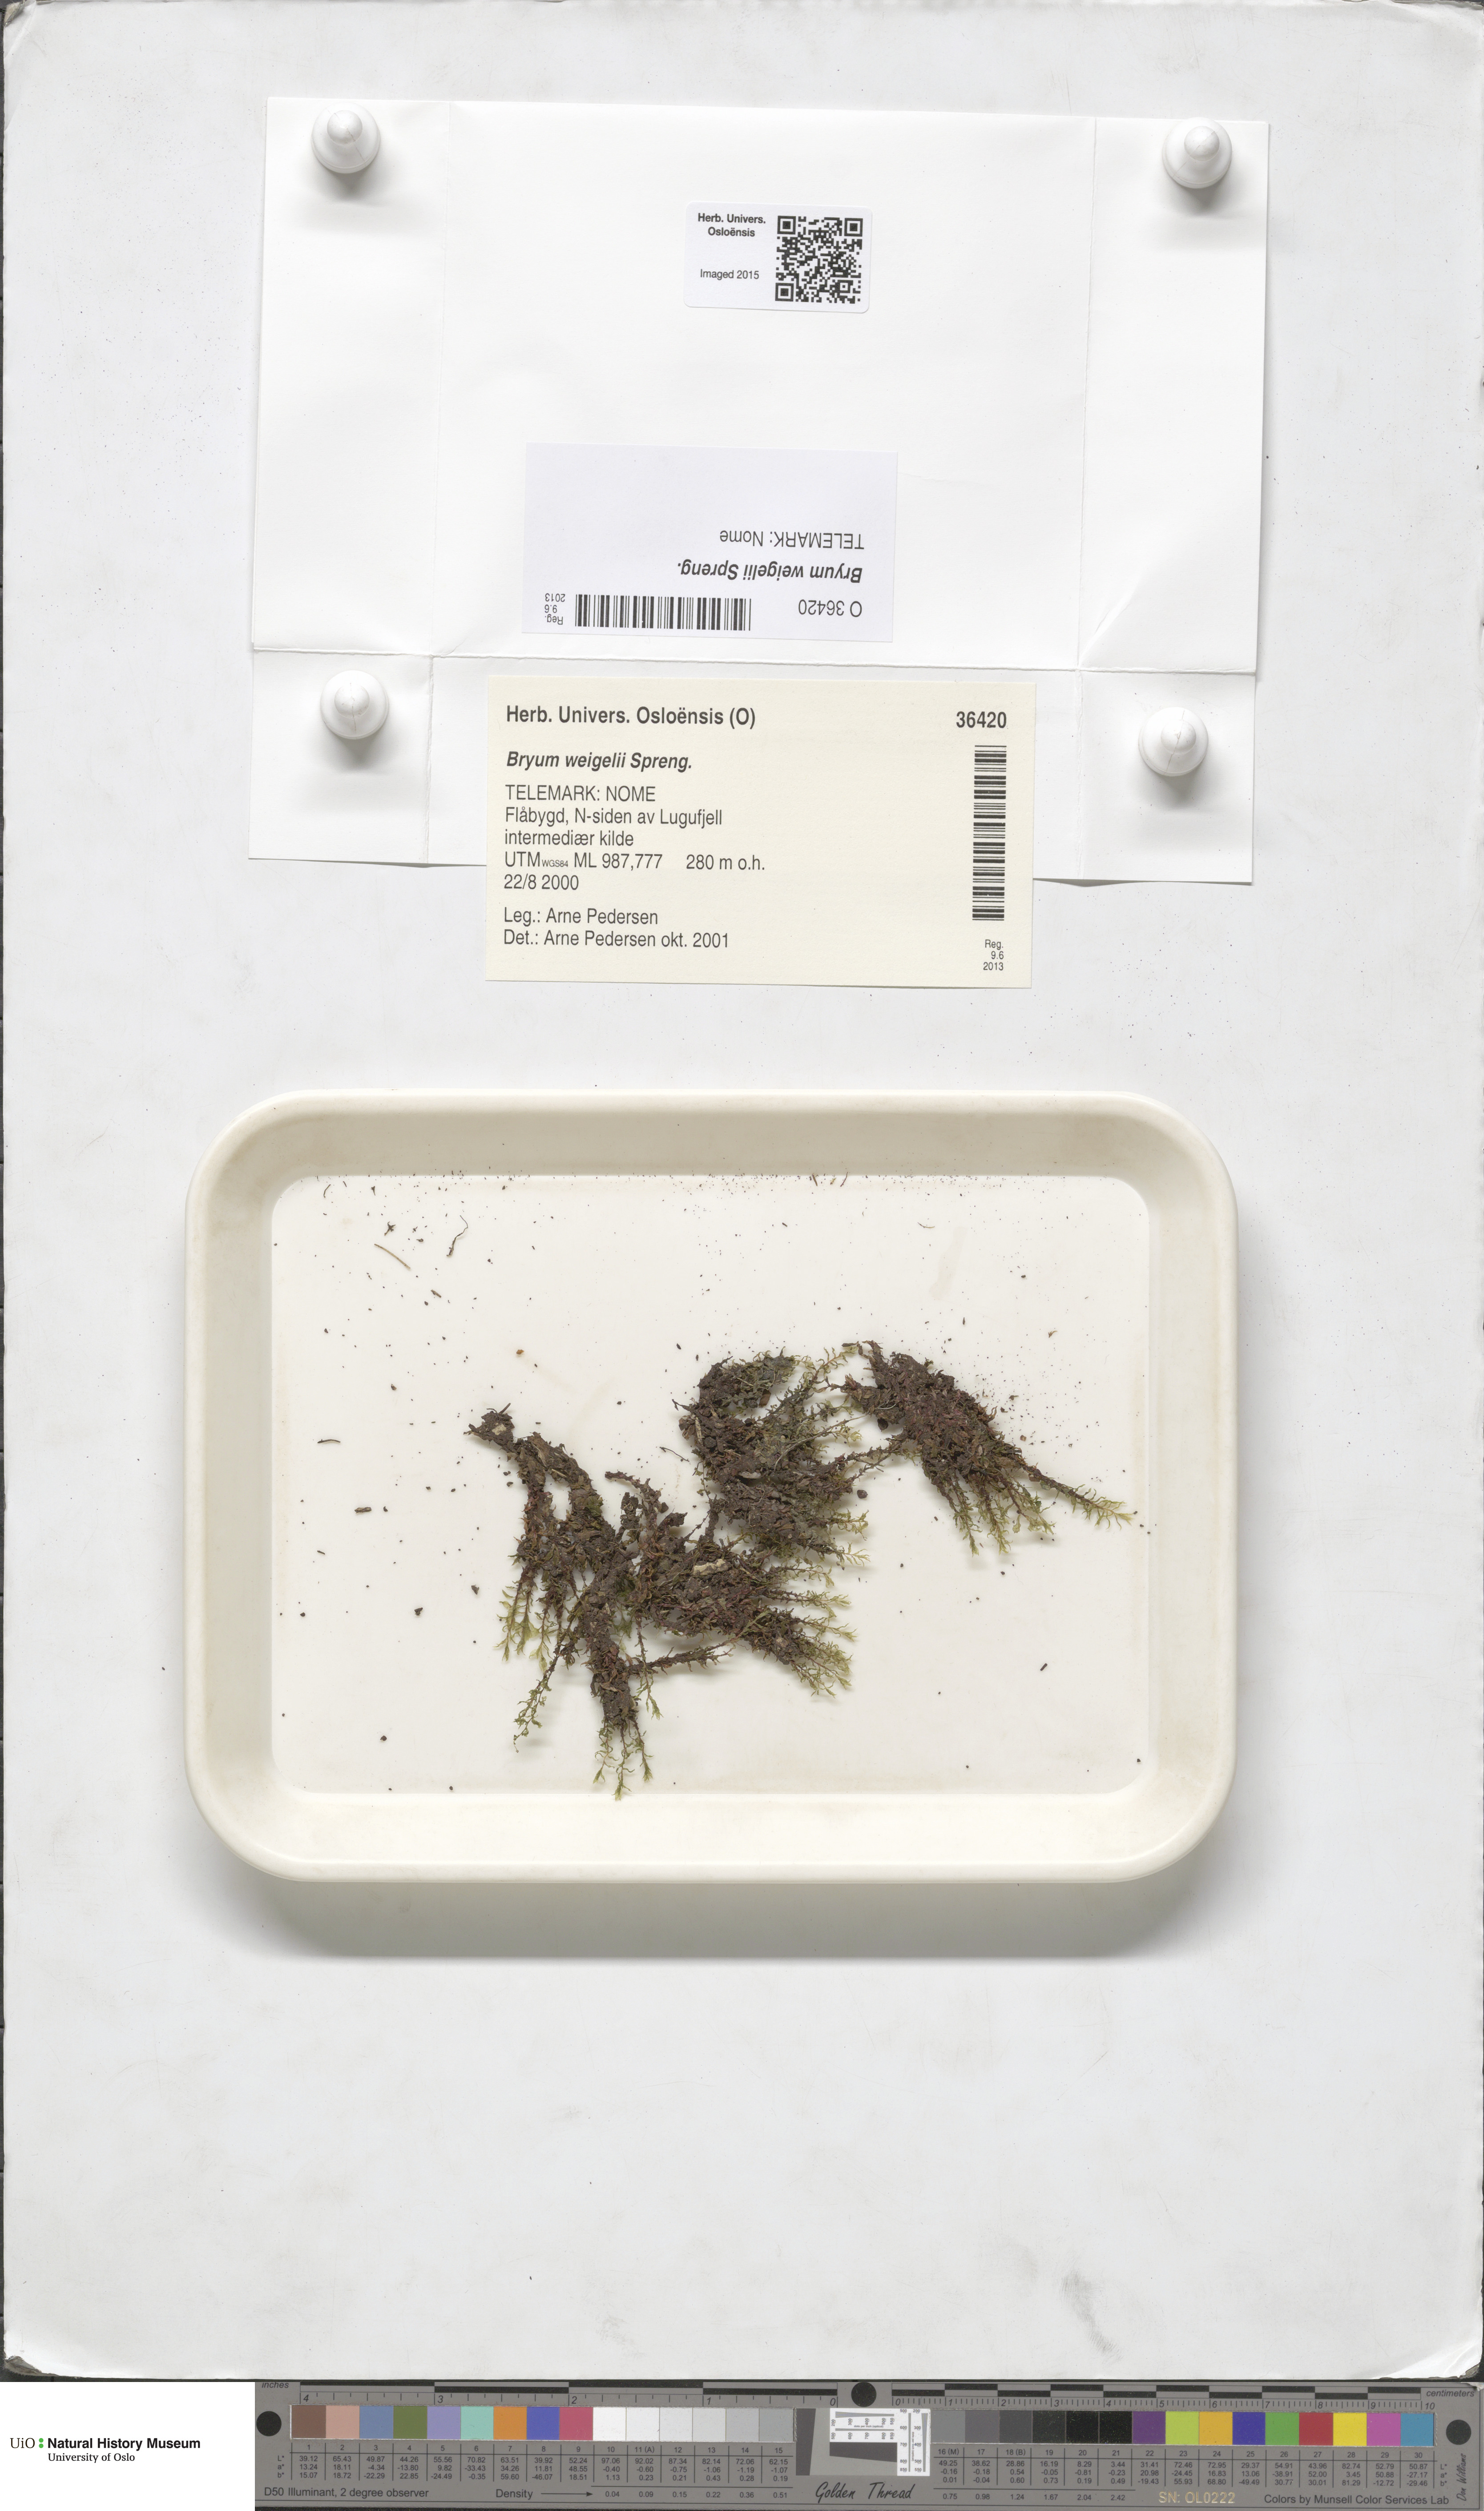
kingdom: Plantae
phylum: Bryophyta
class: Bryopsida
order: Bryales
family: Bryaceae
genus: Ptychostomum
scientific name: Ptychostomum weigelii
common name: Weigel's bryum moss
